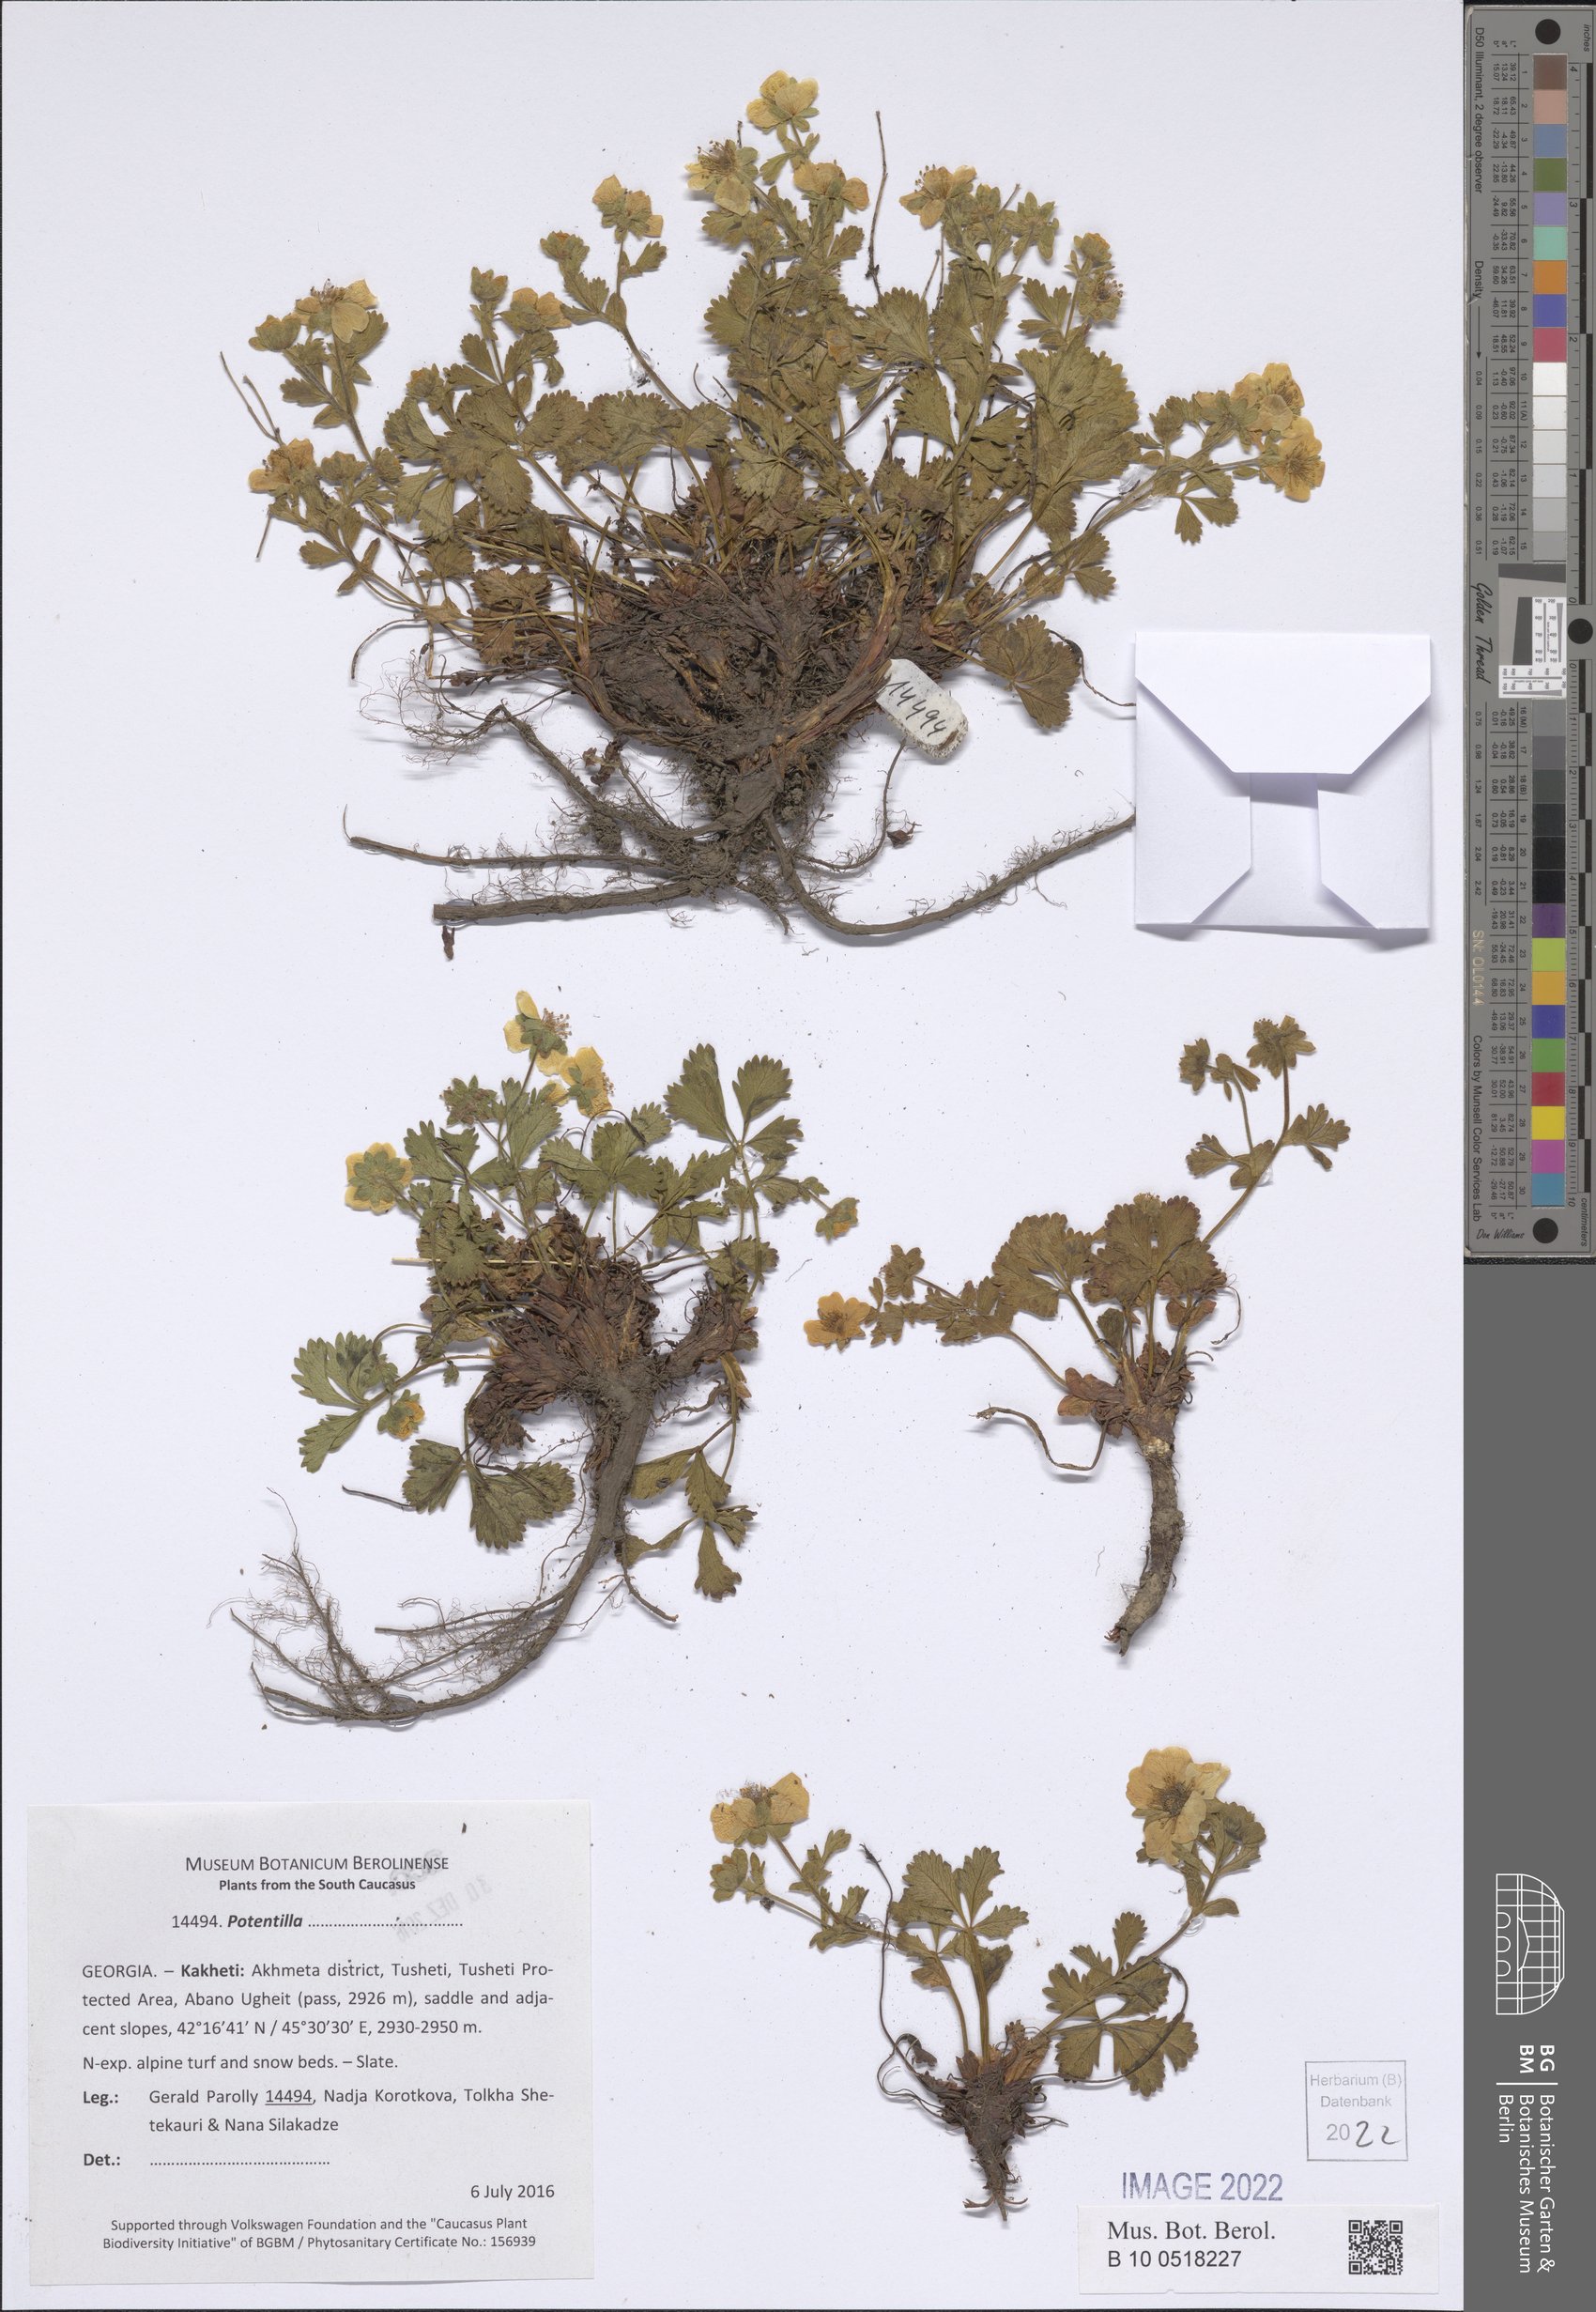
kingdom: Plantae
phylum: Tracheophyta
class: Magnoliopsida
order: Rosales
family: Rosaceae
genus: Potentilla
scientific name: Potentilla
